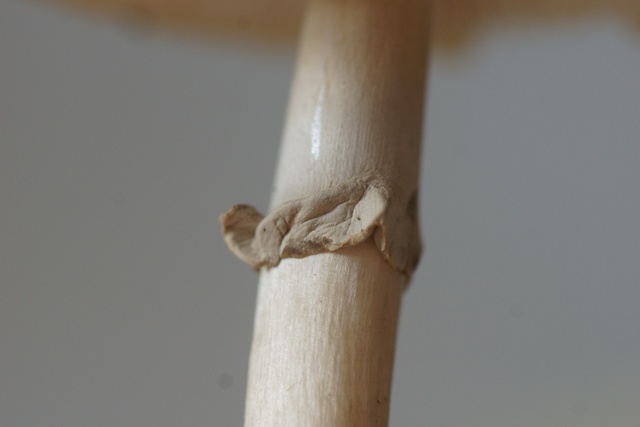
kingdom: Fungi
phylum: Basidiomycota
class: Agaricomycetes
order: Agaricales
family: Amanitaceae
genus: Amanita
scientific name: Amanita porphyria
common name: porfyr-fluesvamp
